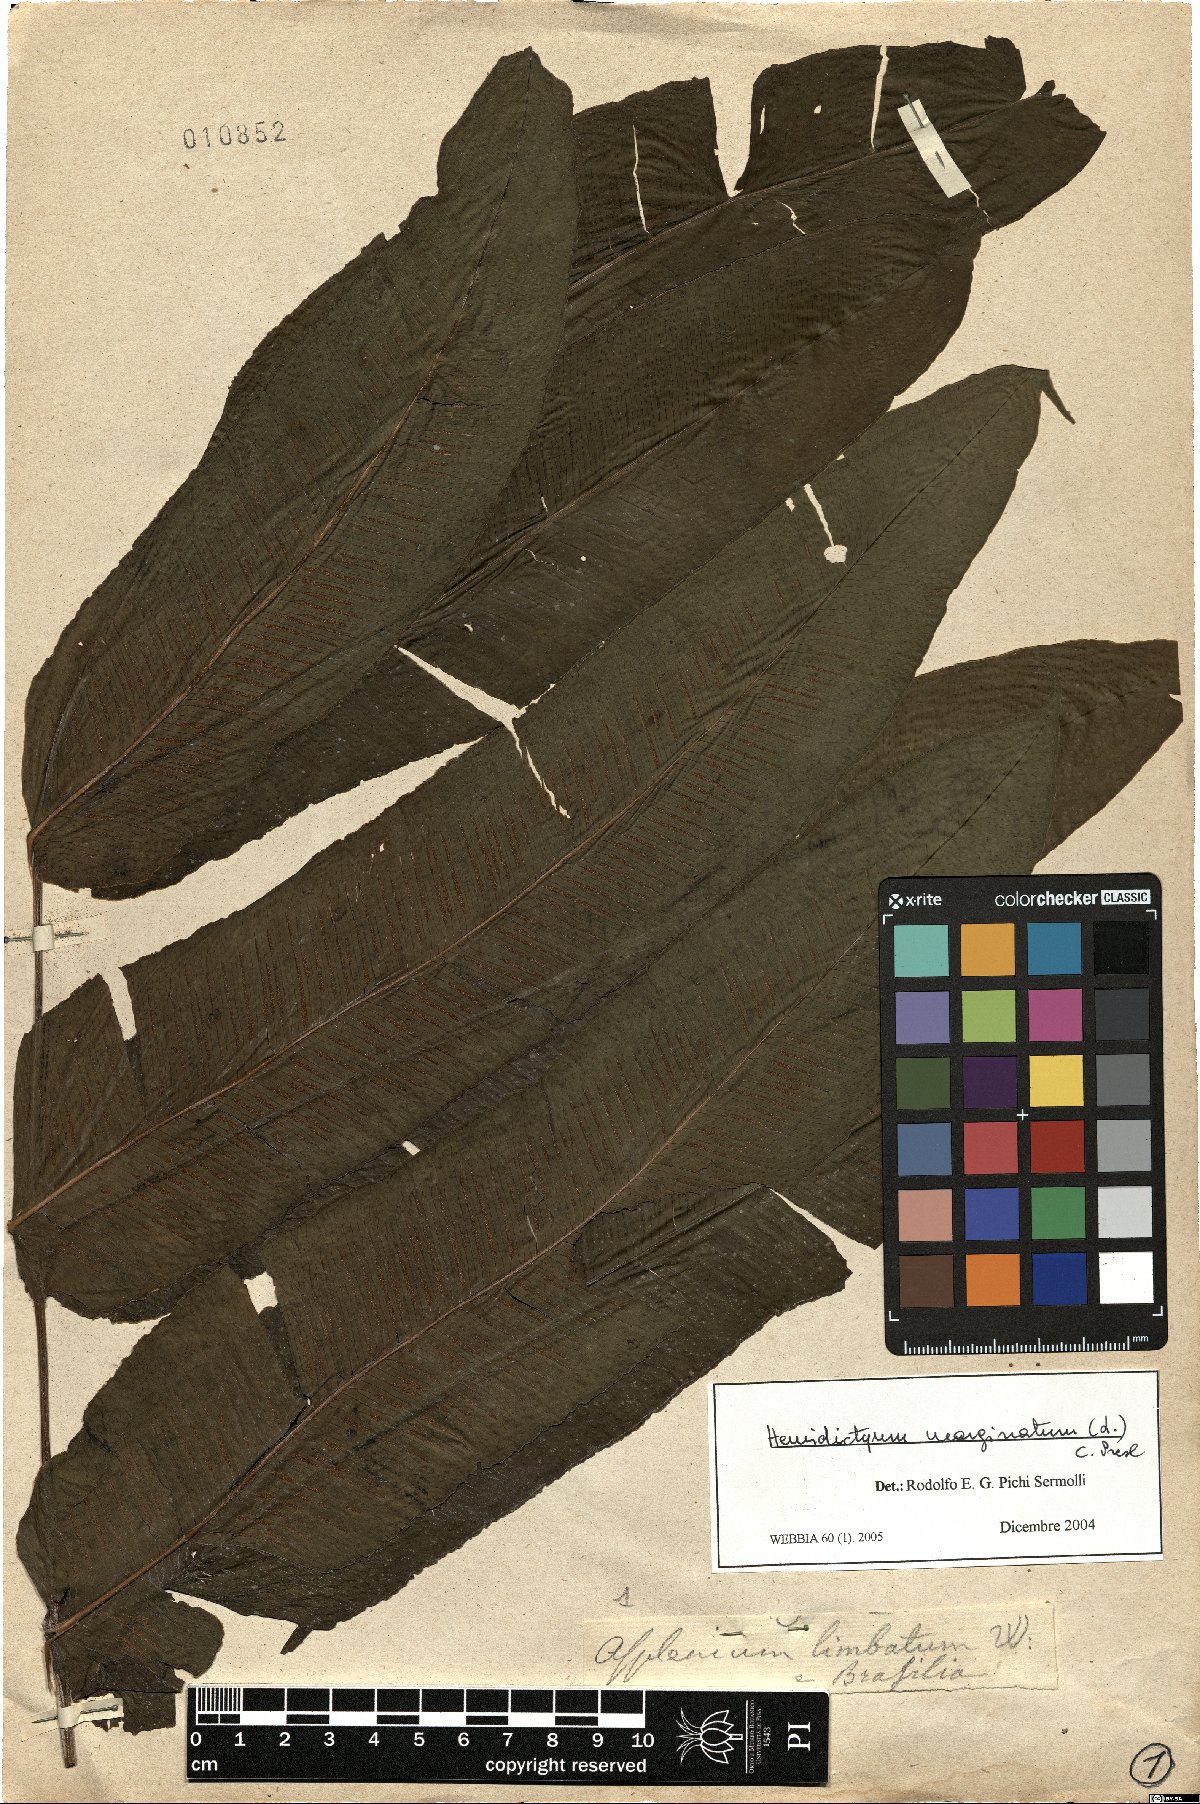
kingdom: Plantae
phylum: Tracheophyta
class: Polypodiopsida
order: Polypodiales
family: Hemidictyaceae
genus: Hemidictyum
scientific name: Hemidictyum marginatum
